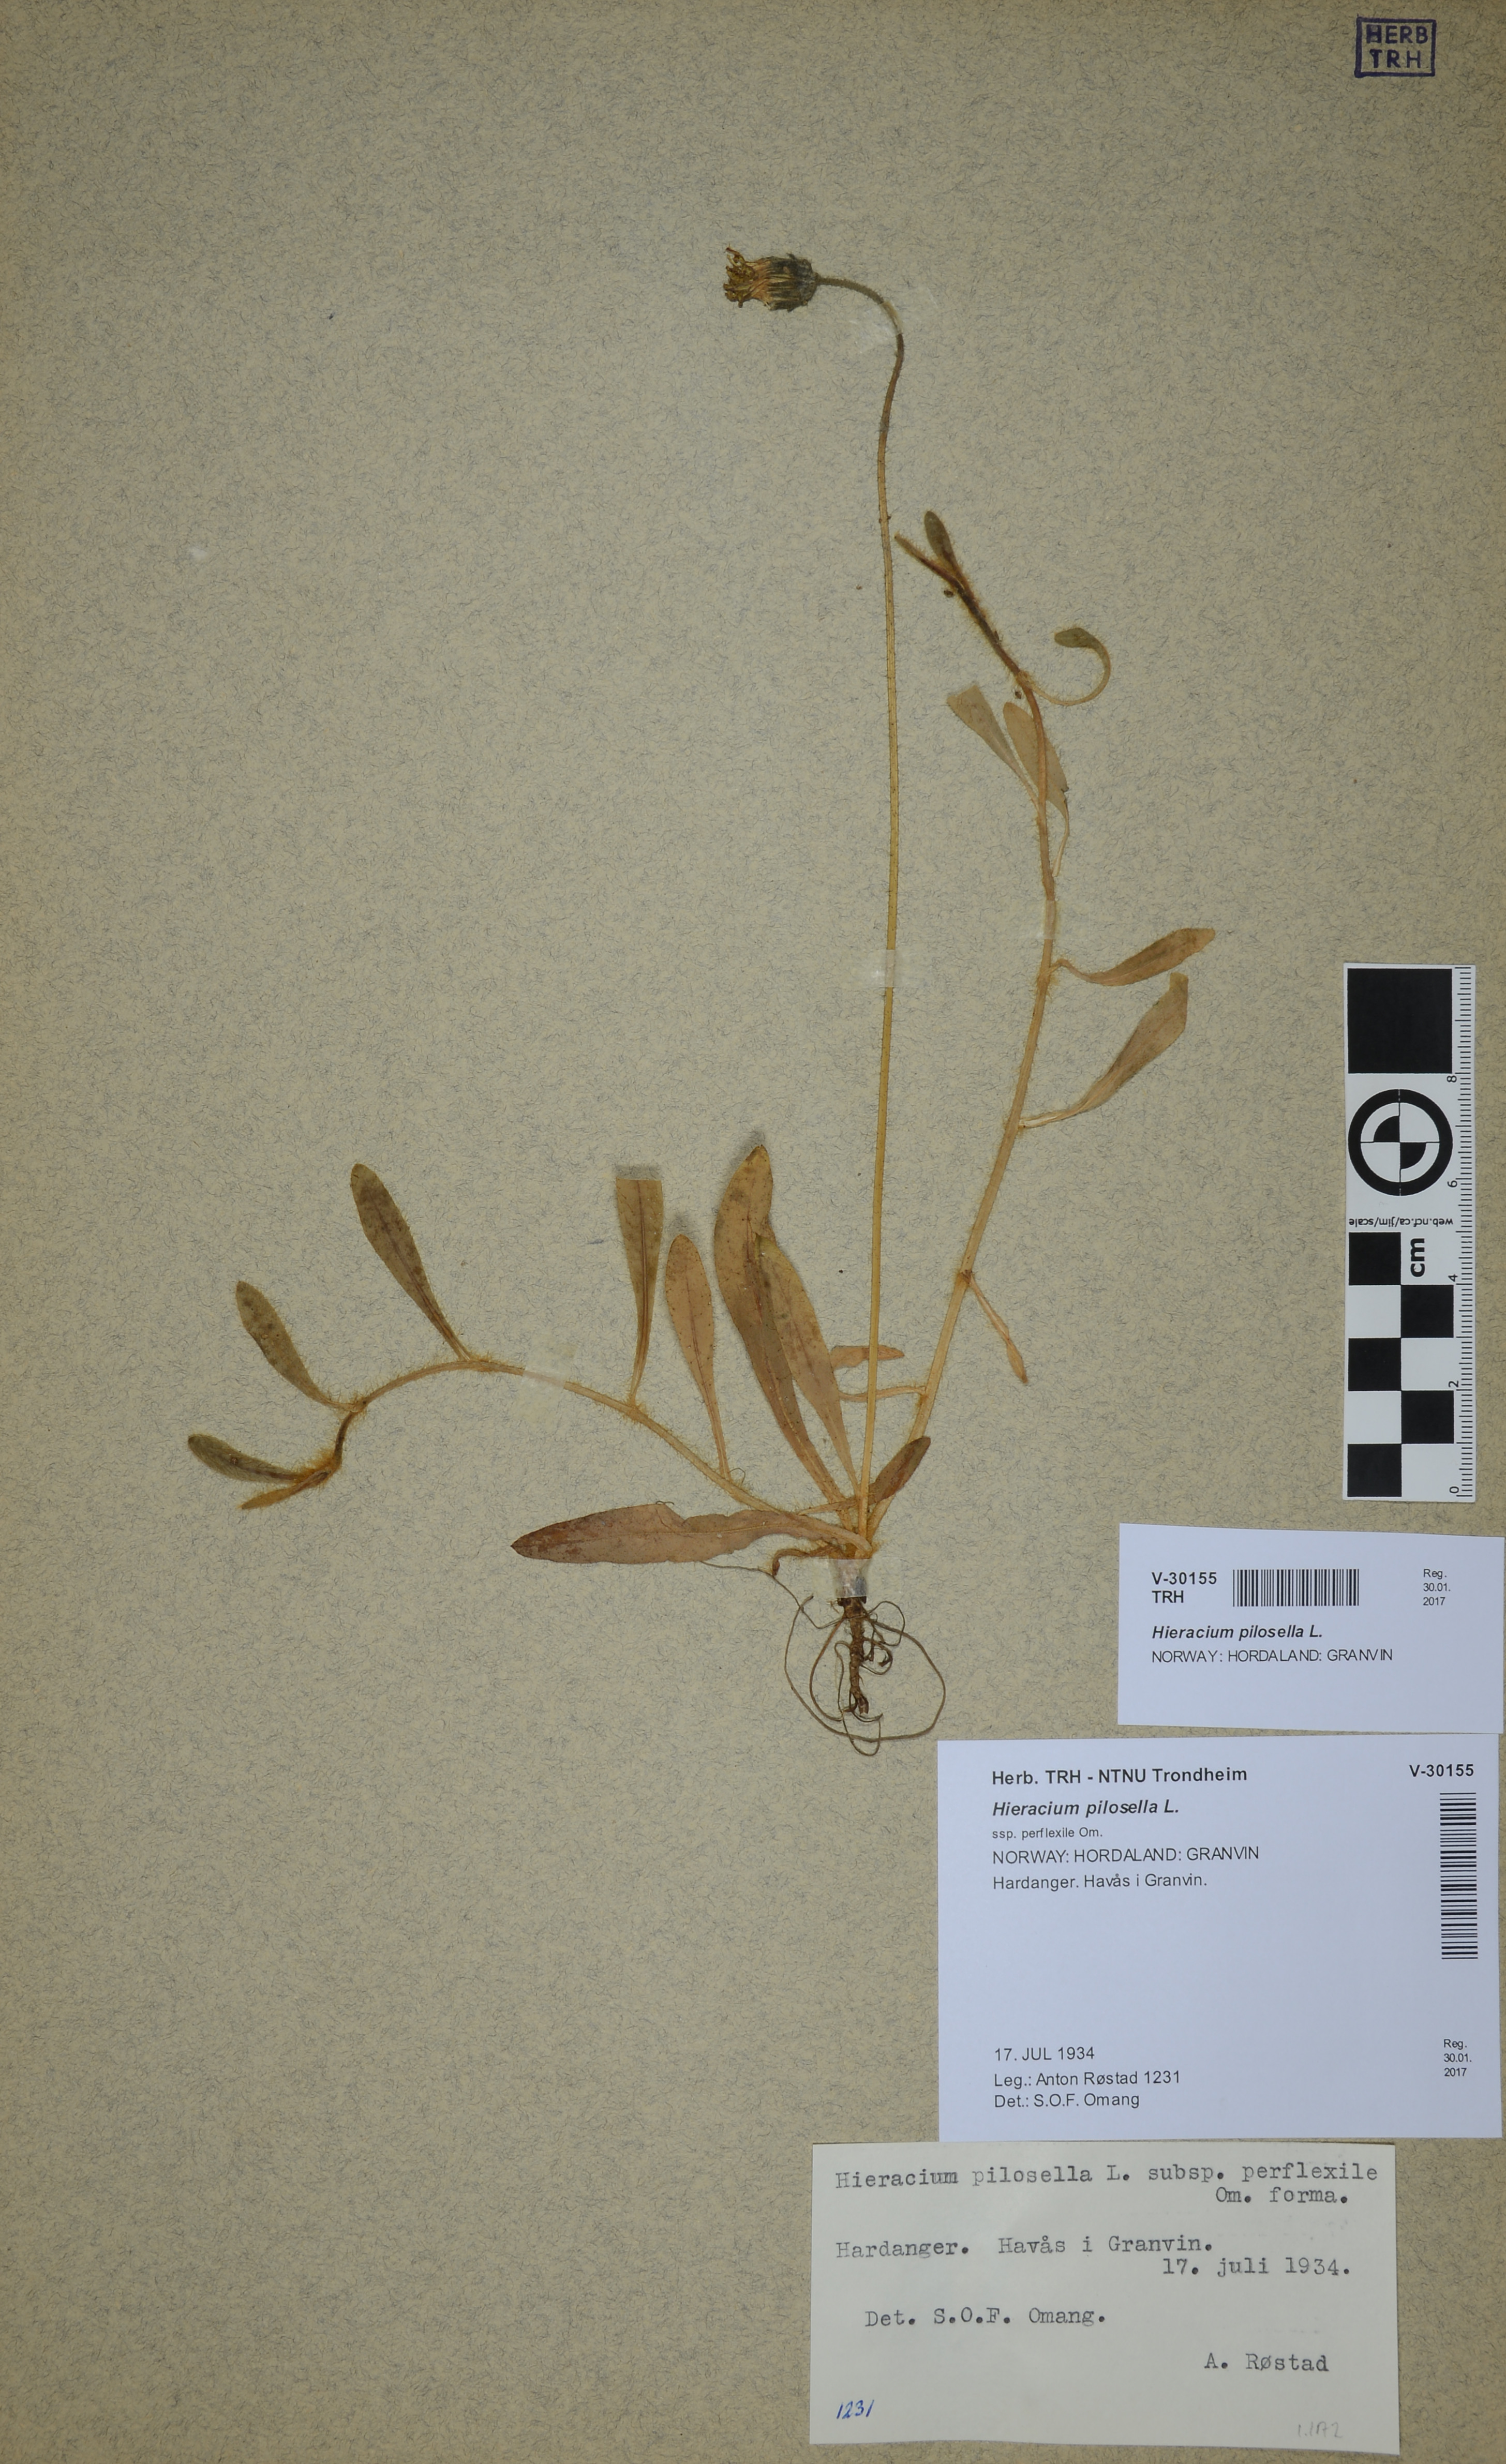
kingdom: Plantae
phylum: Tracheophyta
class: Magnoliopsida
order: Asterales
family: Asteraceae
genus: Pilosella
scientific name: Pilosella officinarum
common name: Mouse-ear hawkweed
